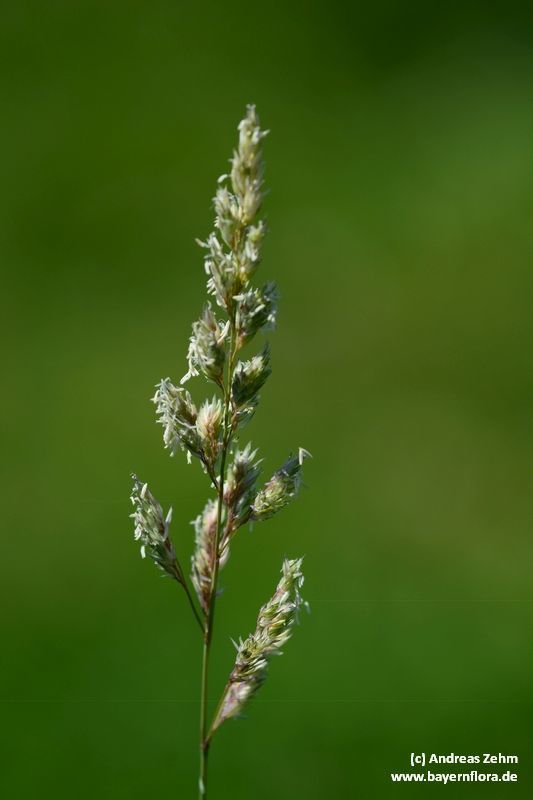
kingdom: Plantae
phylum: Tracheophyta
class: Liliopsida
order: Poales
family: Poaceae
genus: Phalaris
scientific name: Phalaris arundinacea
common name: Reed canary-grass
